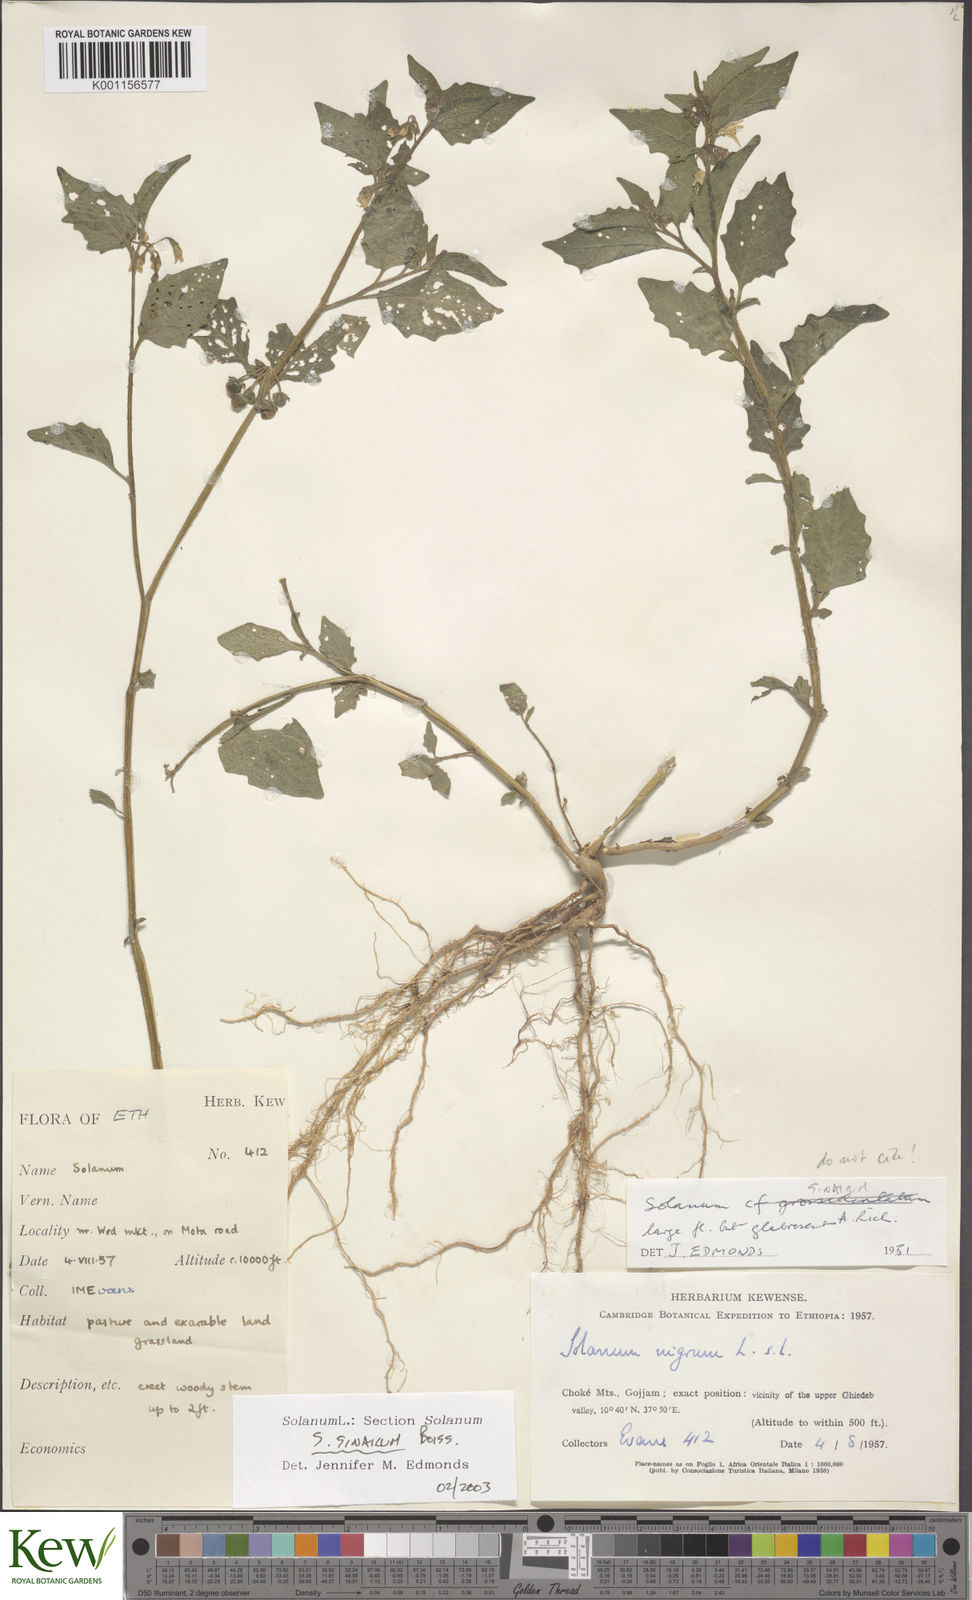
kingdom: Plantae
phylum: Tracheophyta
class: Magnoliopsida
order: Solanales
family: Solanaceae
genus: Solanum
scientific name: Solanum tarderemotum
